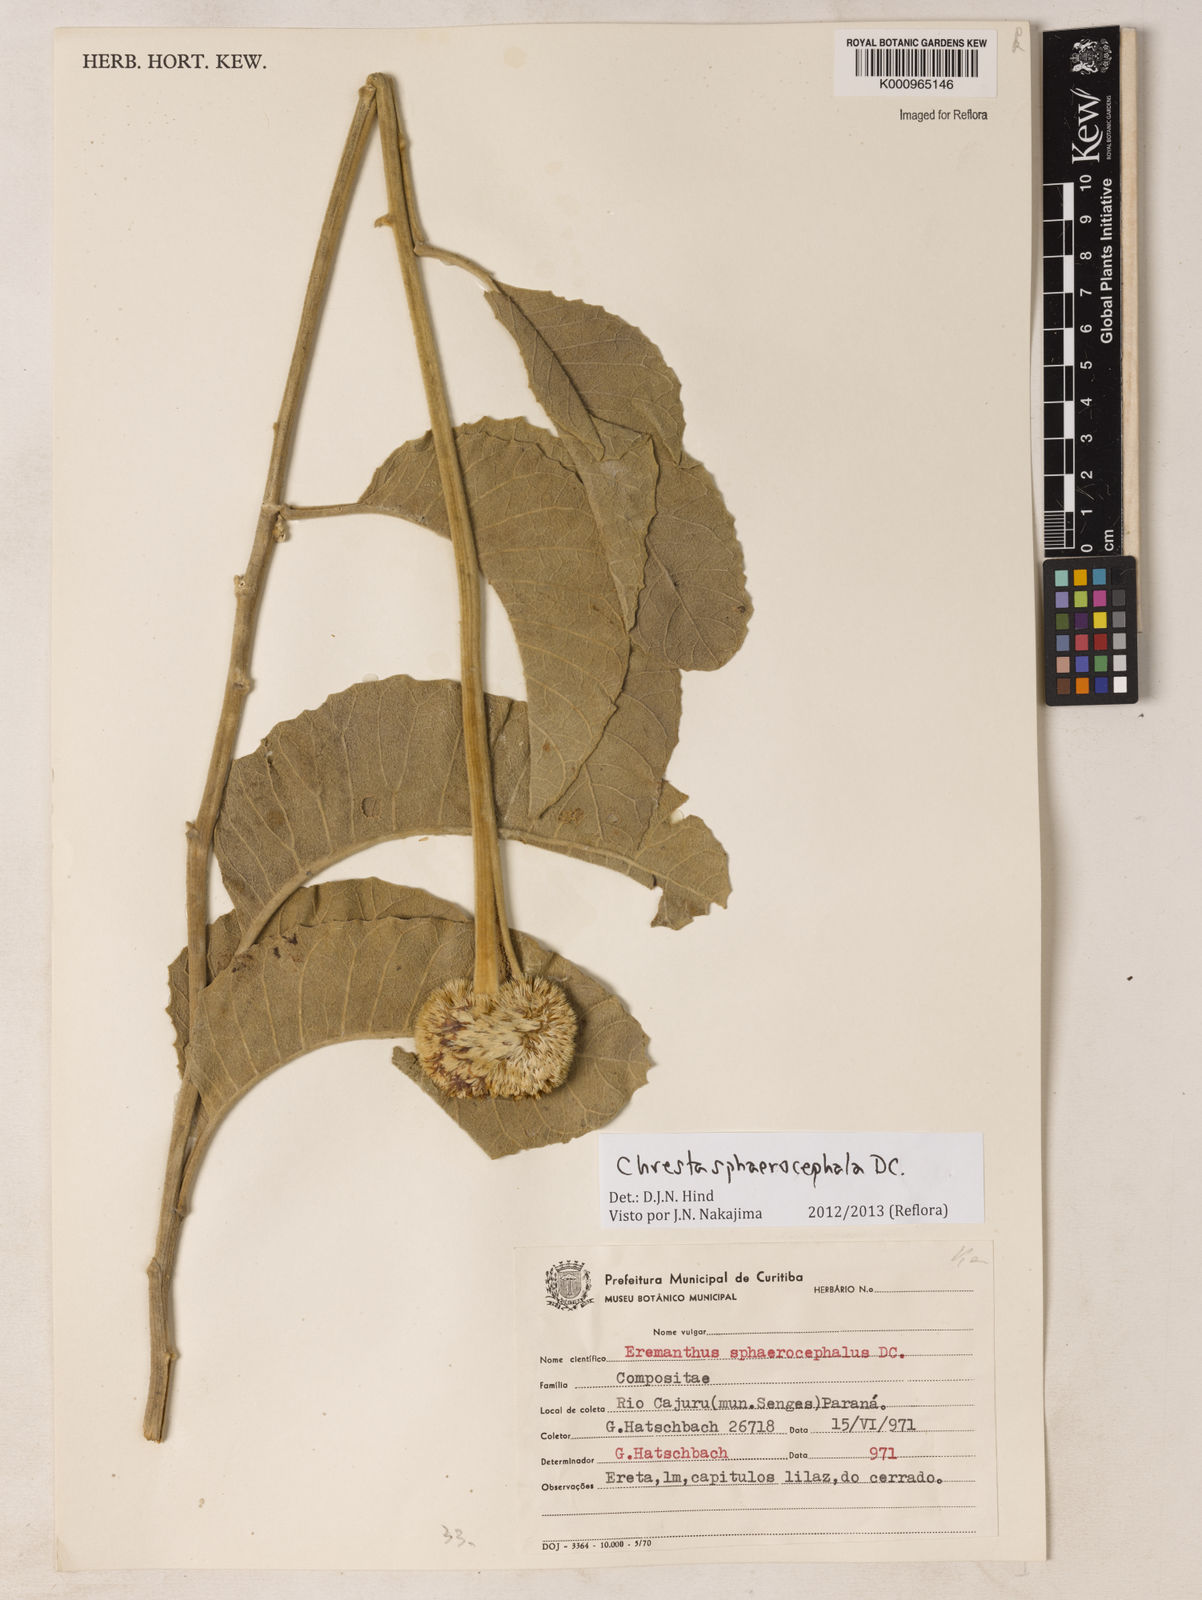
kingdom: Plantae
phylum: Tracheophyta
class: Magnoliopsida
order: Asterales
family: Asteraceae
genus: Chresta
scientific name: Chresta sphaerocephala
